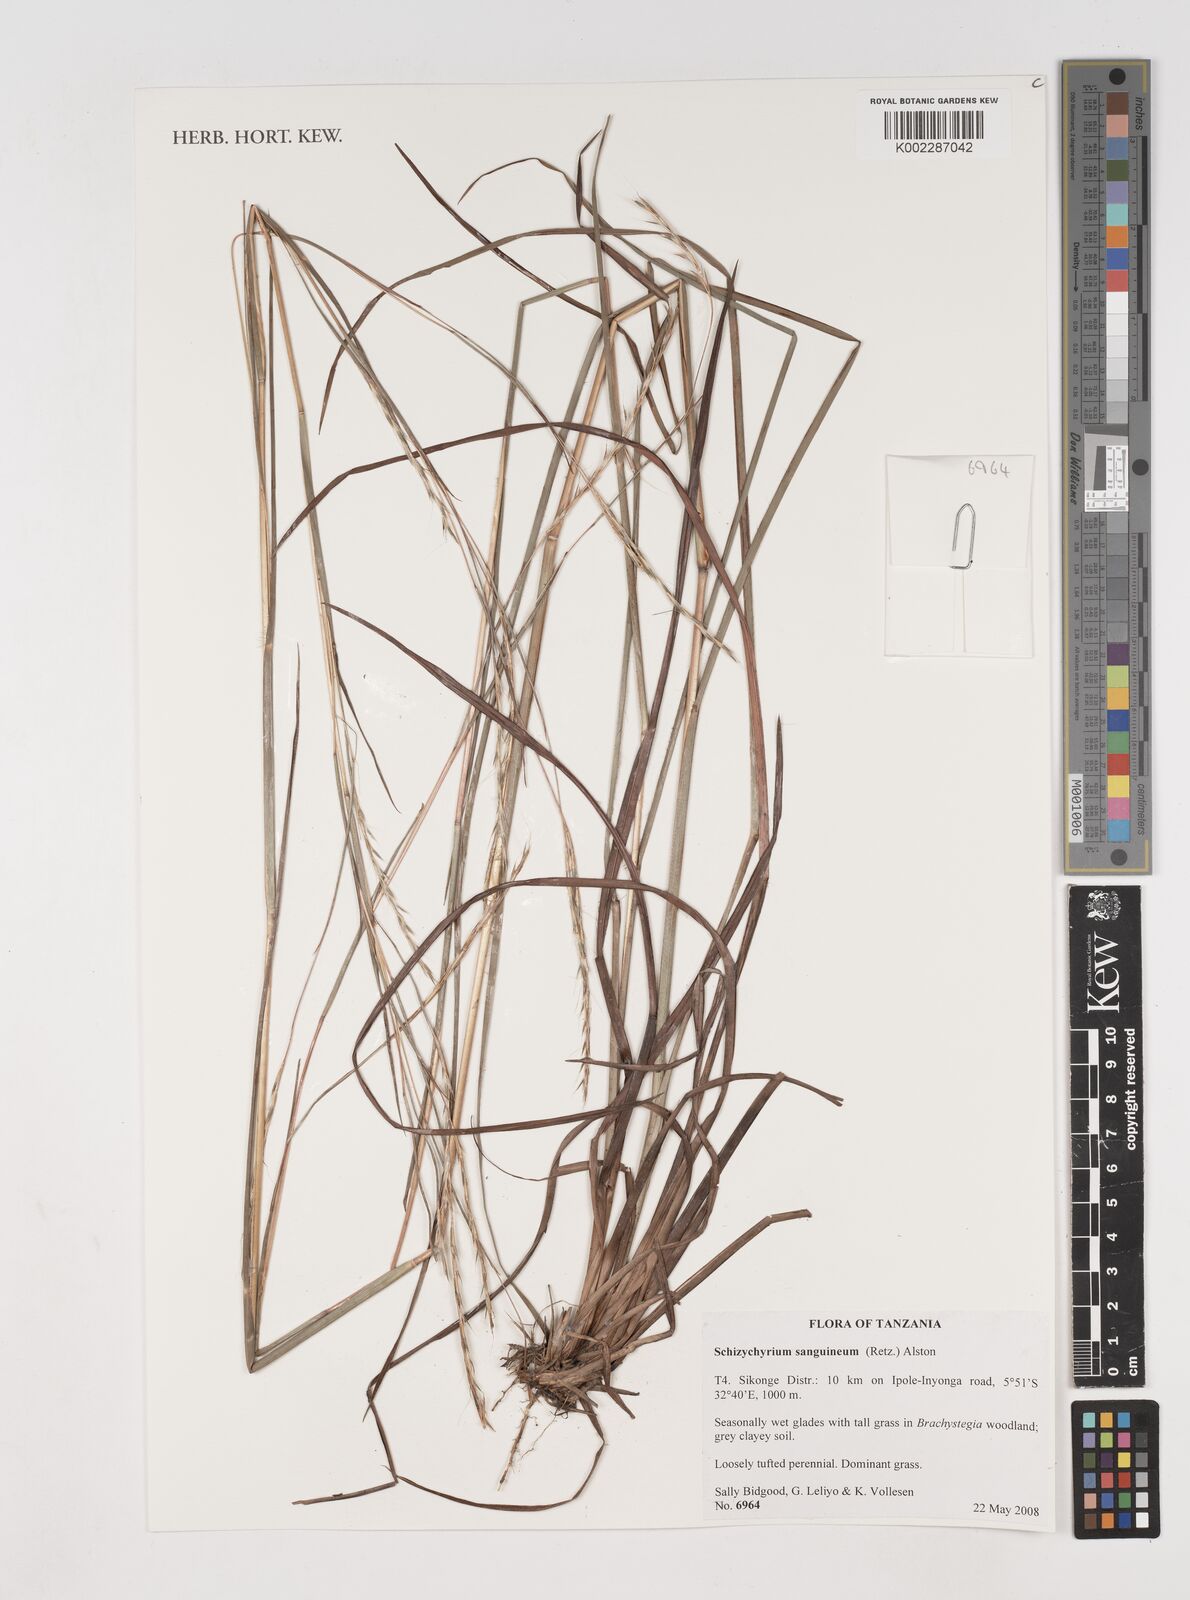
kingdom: Plantae
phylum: Tracheophyta
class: Liliopsida
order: Poales
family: Poaceae
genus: Schizachyrium
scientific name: Schizachyrium sanguineum
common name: Crimson bluestem
